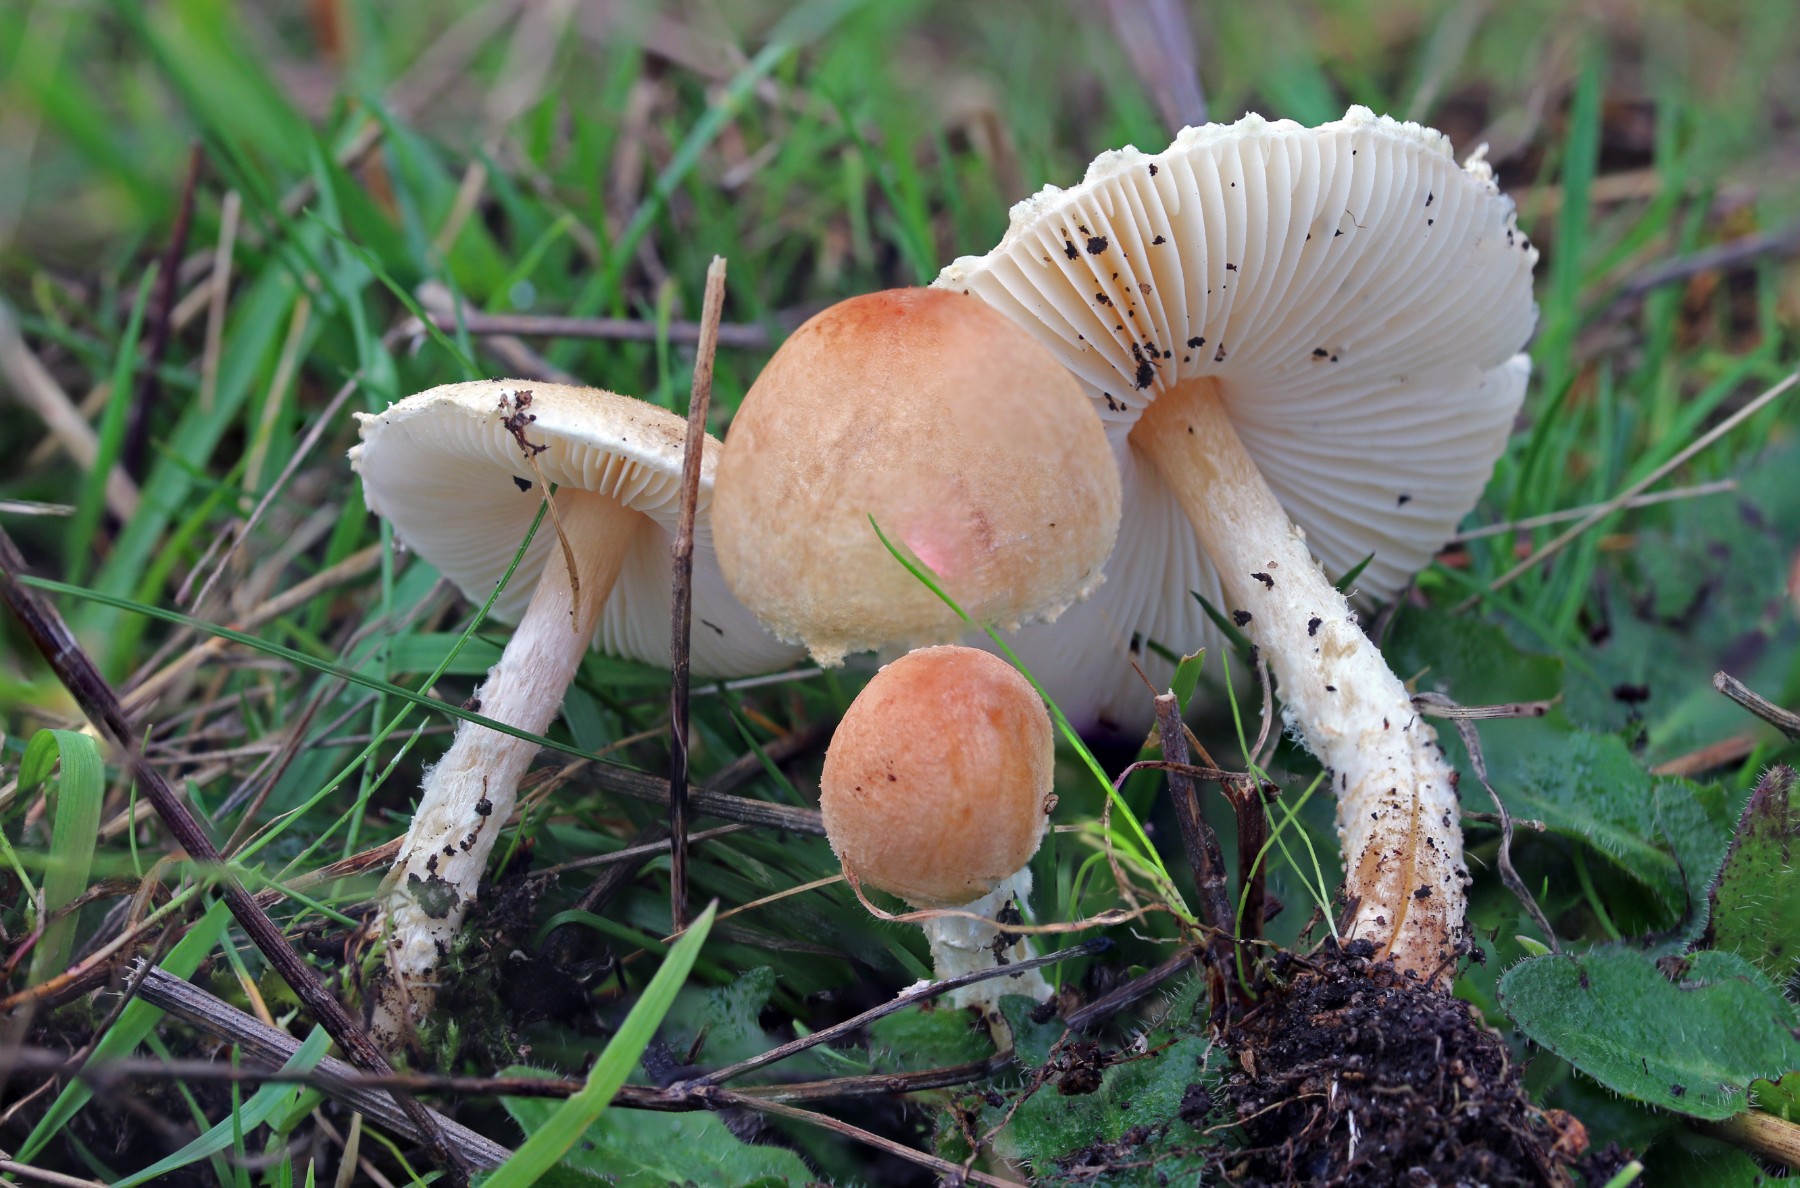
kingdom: Fungi
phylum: Basidiomycota
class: Agaricomycetes
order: Agaricales
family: Agaricaceae
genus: Lepiota
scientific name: Lepiota oreadiformis
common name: blegbrun parasolhat
